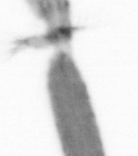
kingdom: Animalia
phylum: Arthropoda
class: Copepoda
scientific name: Copepoda
